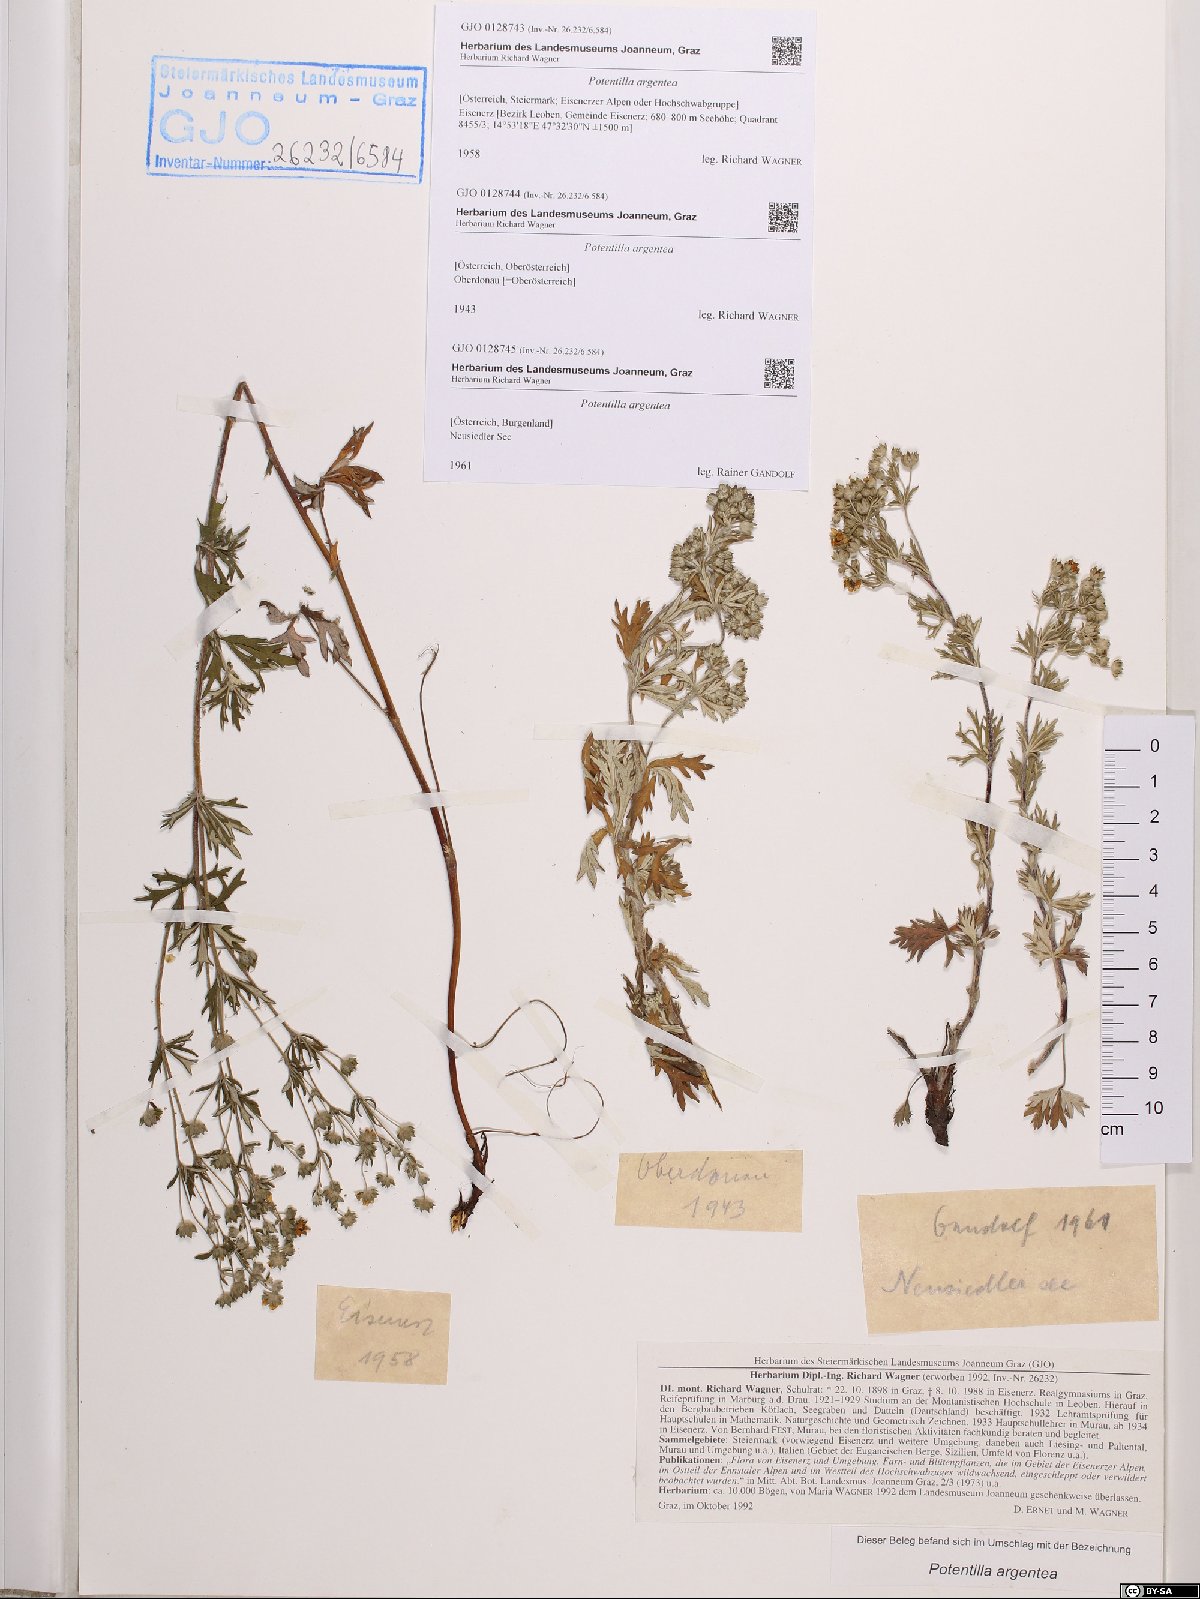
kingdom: Plantae
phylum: Tracheophyta
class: Magnoliopsida
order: Rosales
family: Rosaceae
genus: Potentilla
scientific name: Potentilla argentea
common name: Hoary cinquefoil
